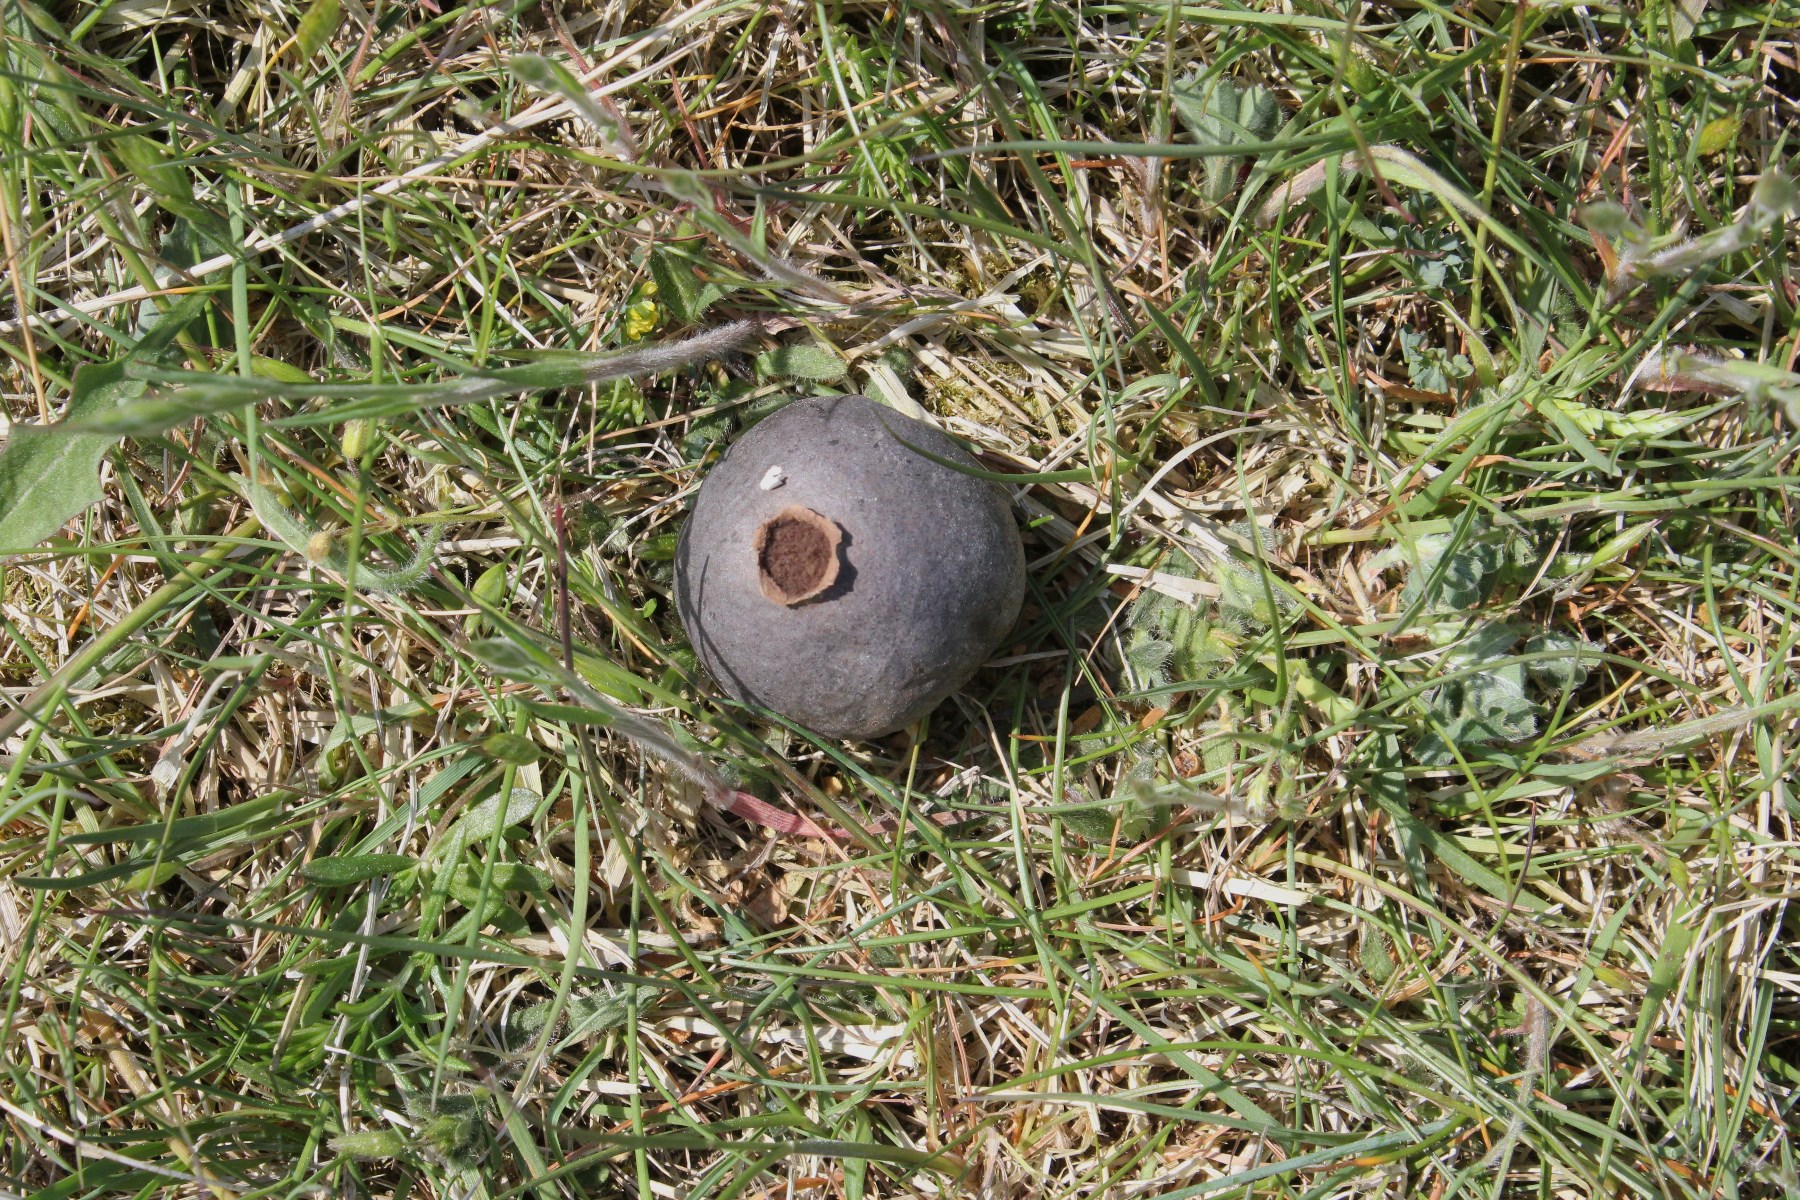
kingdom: Fungi
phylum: Basidiomycota
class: Agaricomycetes
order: Agaricales
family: Lycoperdaceae
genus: Bovista
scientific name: Bovista plumbea
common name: blygrå bovist
